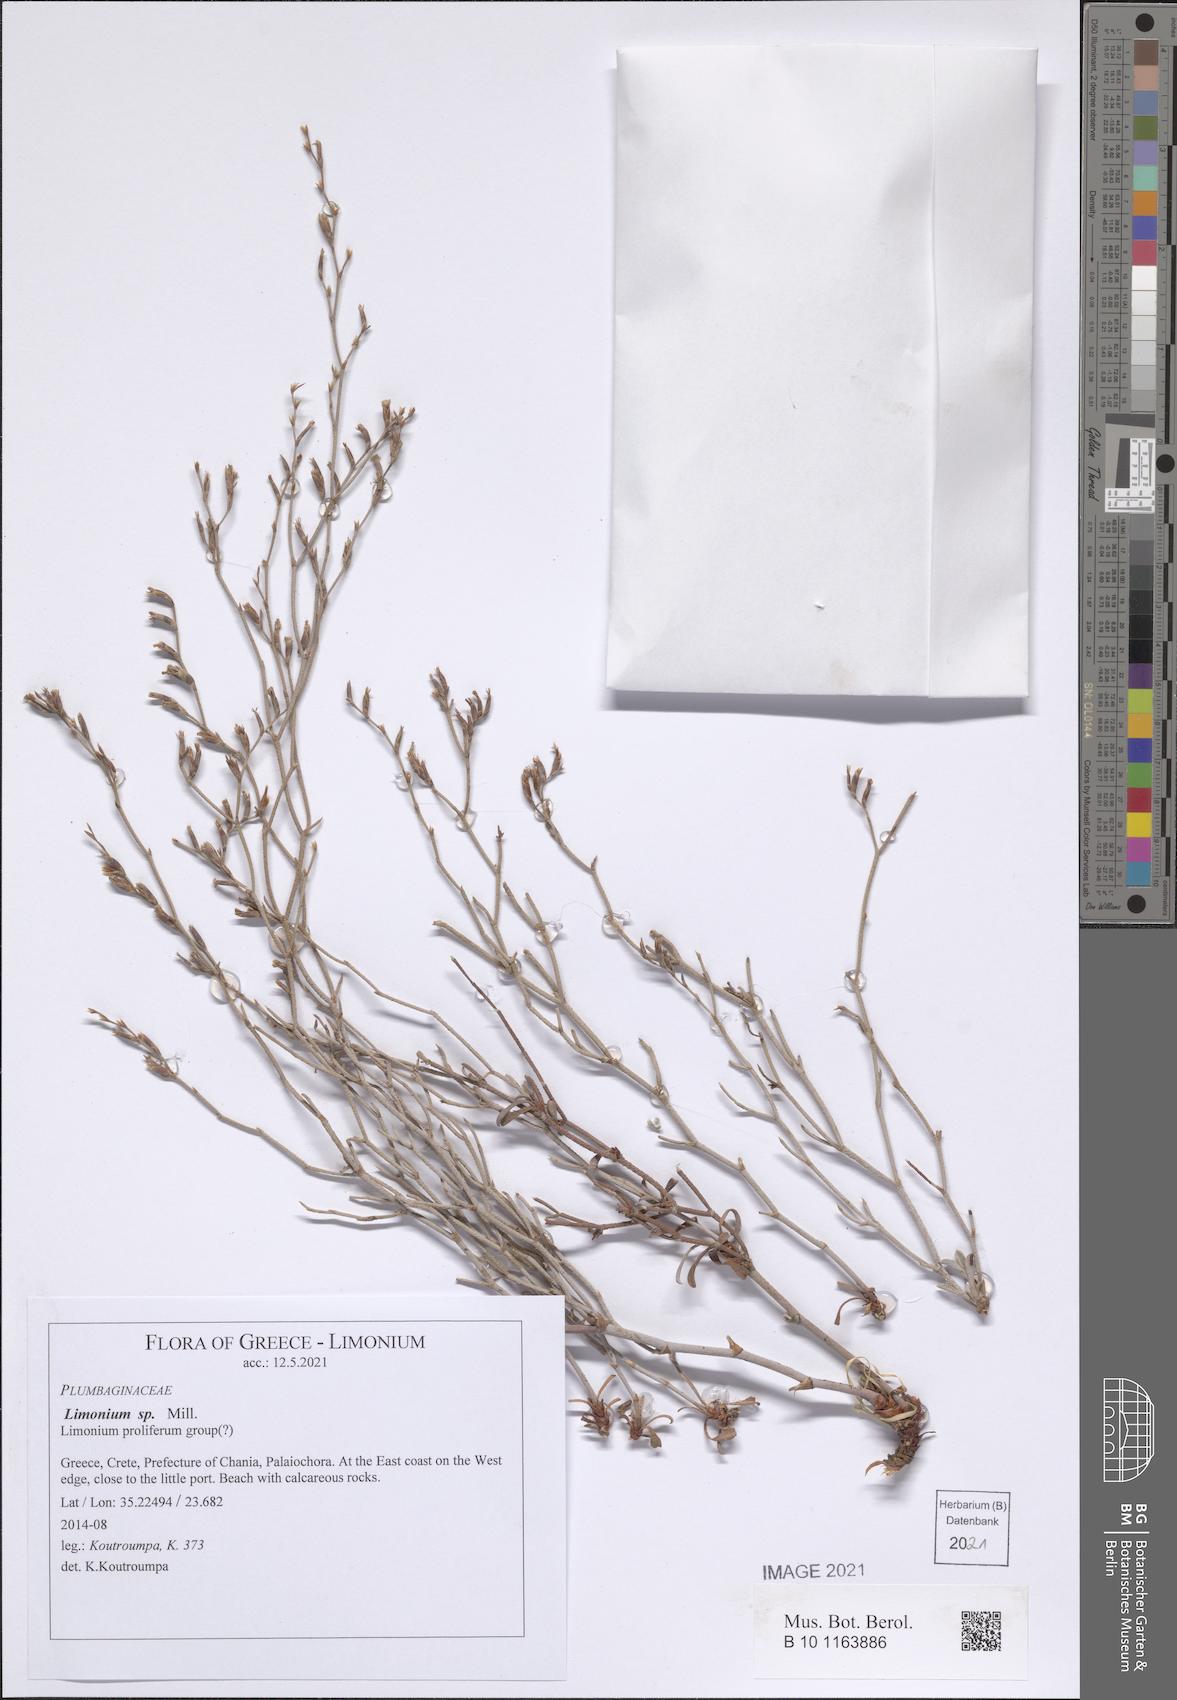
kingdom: Plantae
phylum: Tracheophyta
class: Magnoliopsida
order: Caryophyllales
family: Plumbaginaceae
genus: Limonium
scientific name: Limonium
